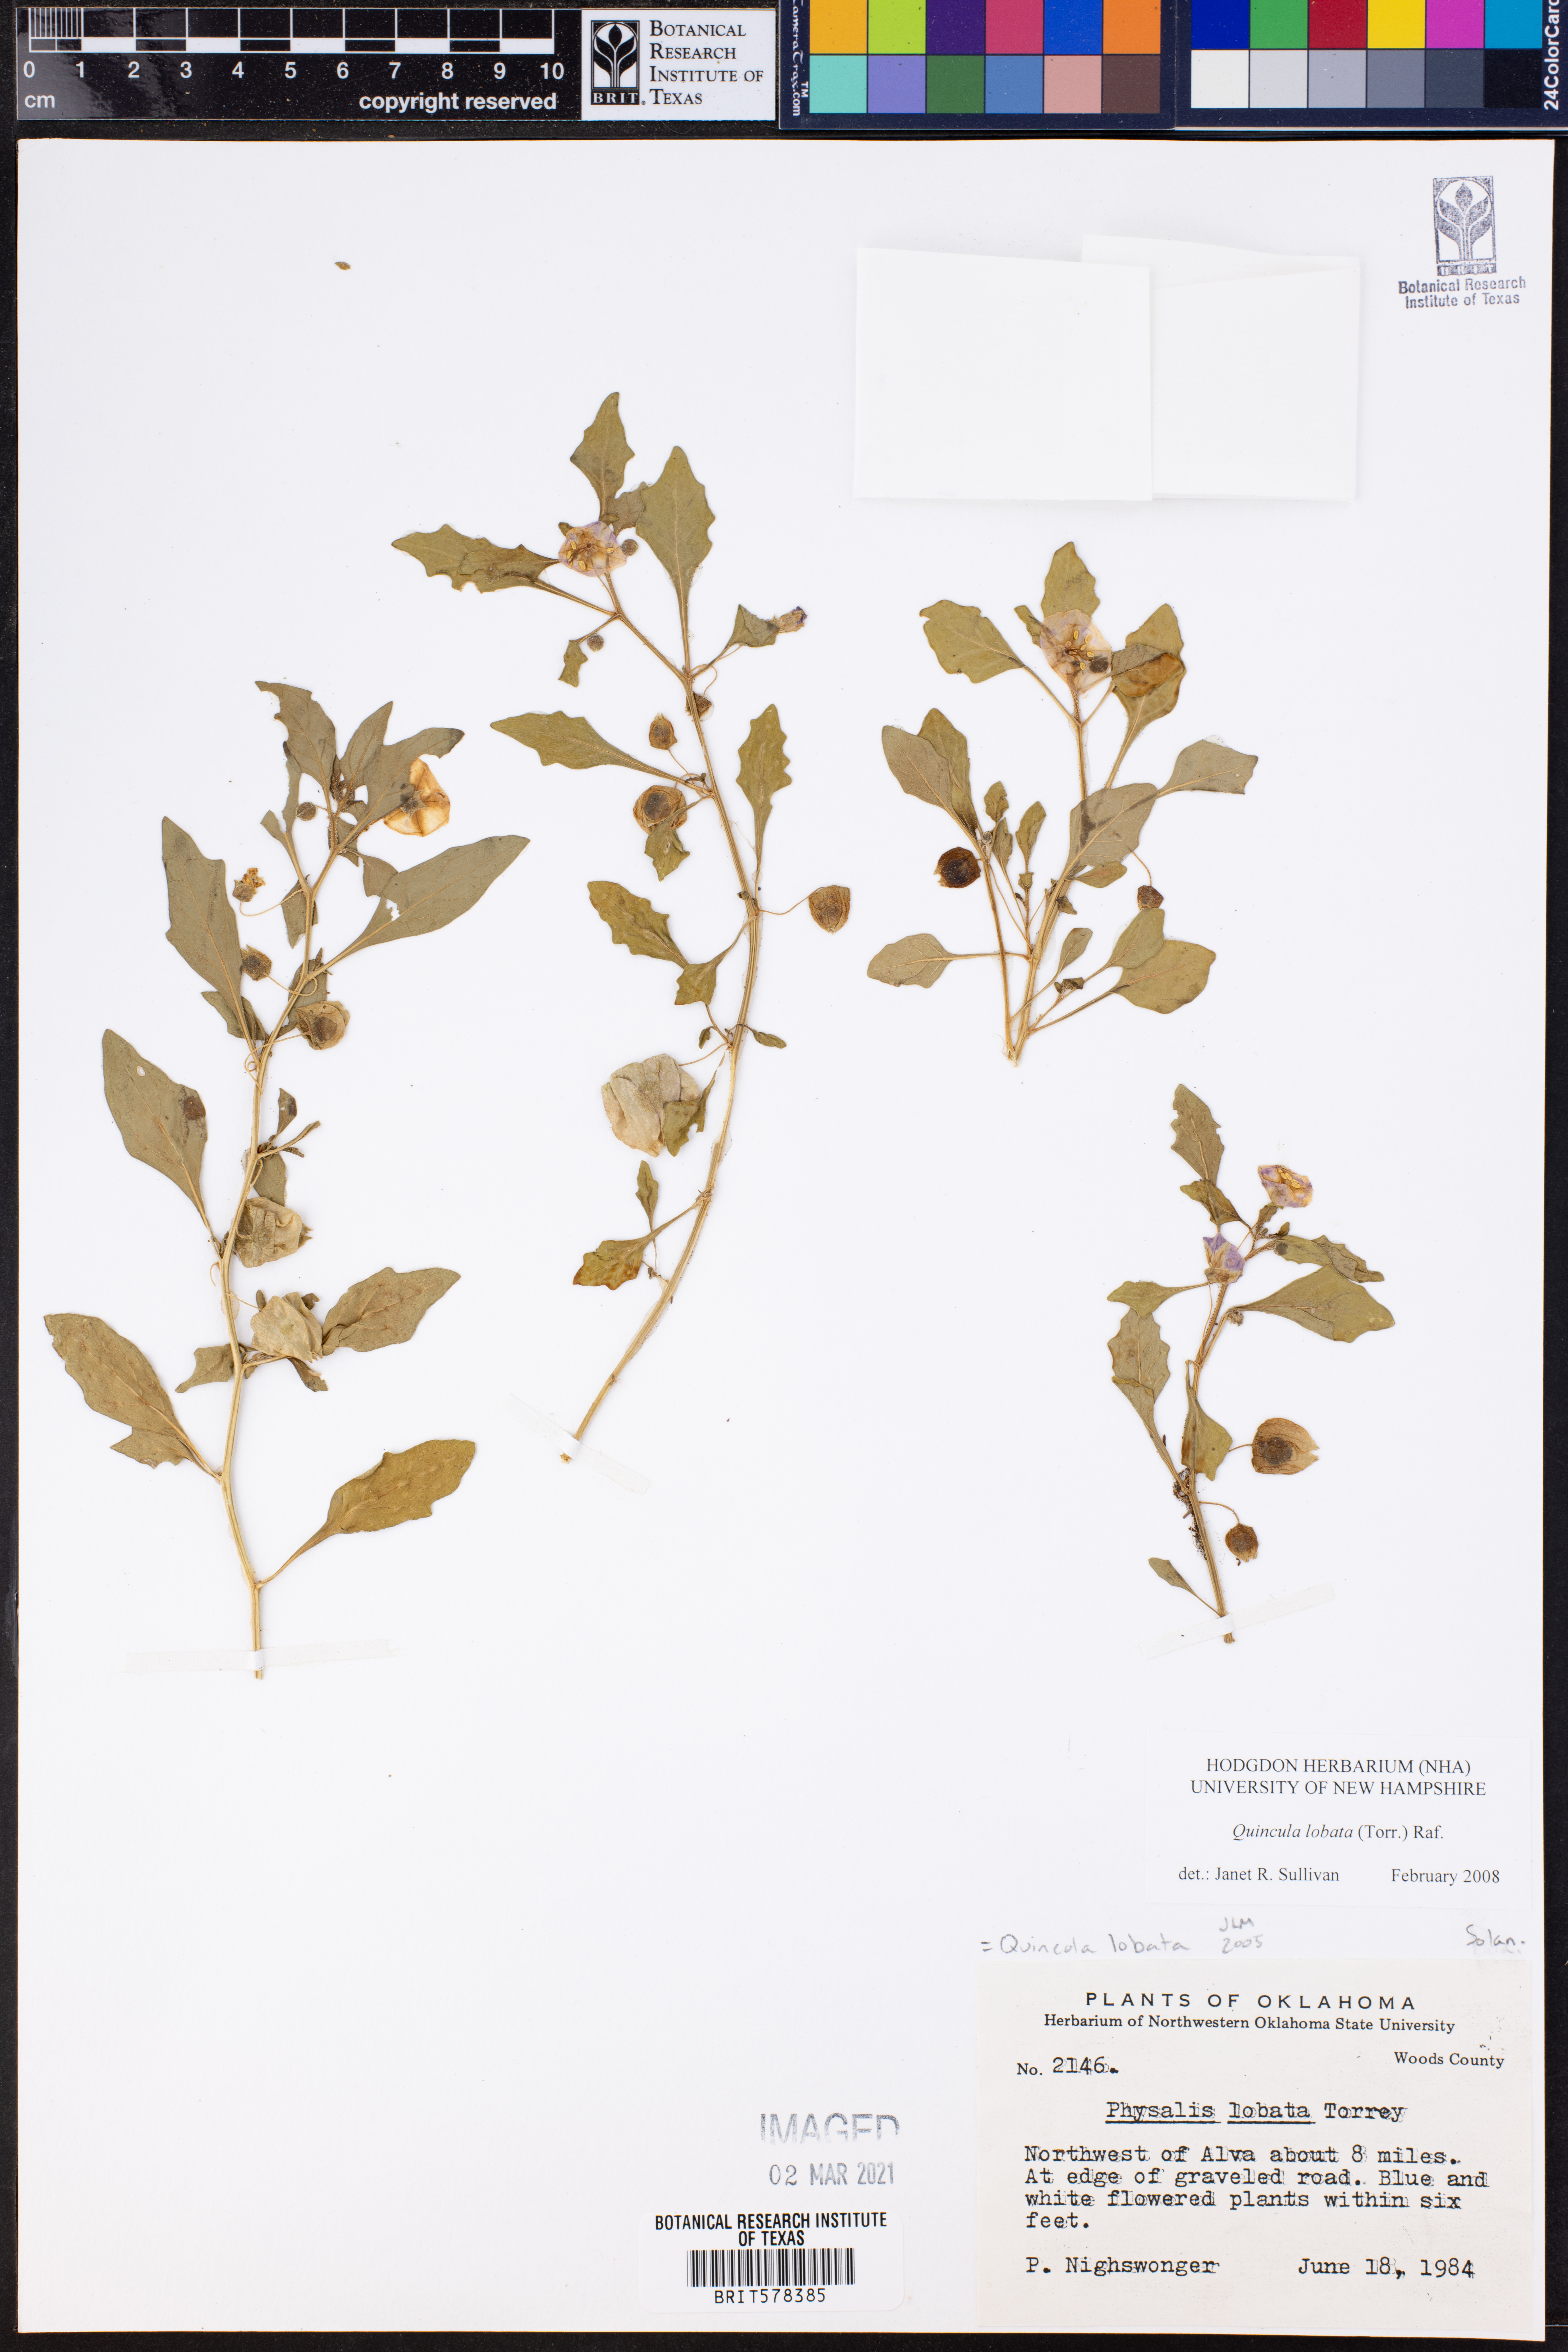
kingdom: Plantae
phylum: Tracheophyta
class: Magnoliopsida
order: Solanales
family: Solanaceae
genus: Quincula
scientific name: Quincula lobata
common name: Purple-ground-cherry
